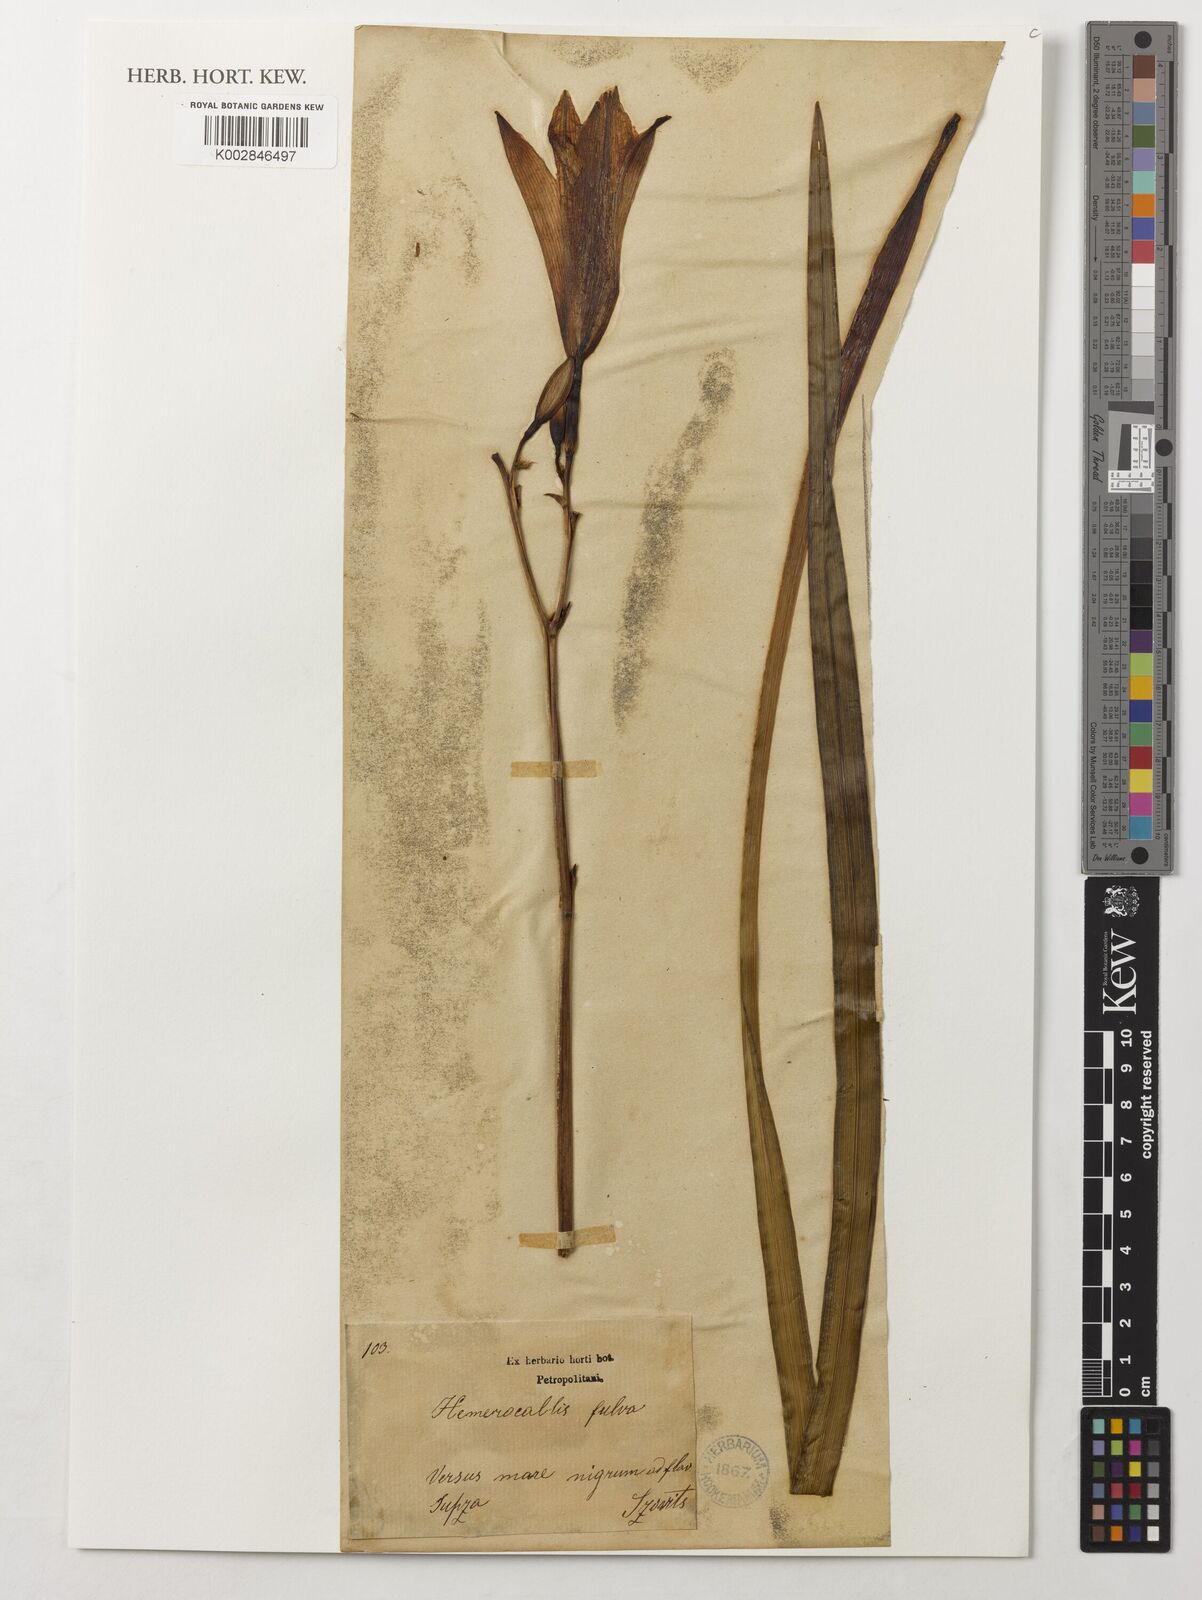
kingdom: Plantae
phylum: Tracheophyta
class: Liliopsida
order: Asparagales
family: Asphodelaceae
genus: Hemerocallis
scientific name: Hemerocallis fulva
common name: Orange day-lily
